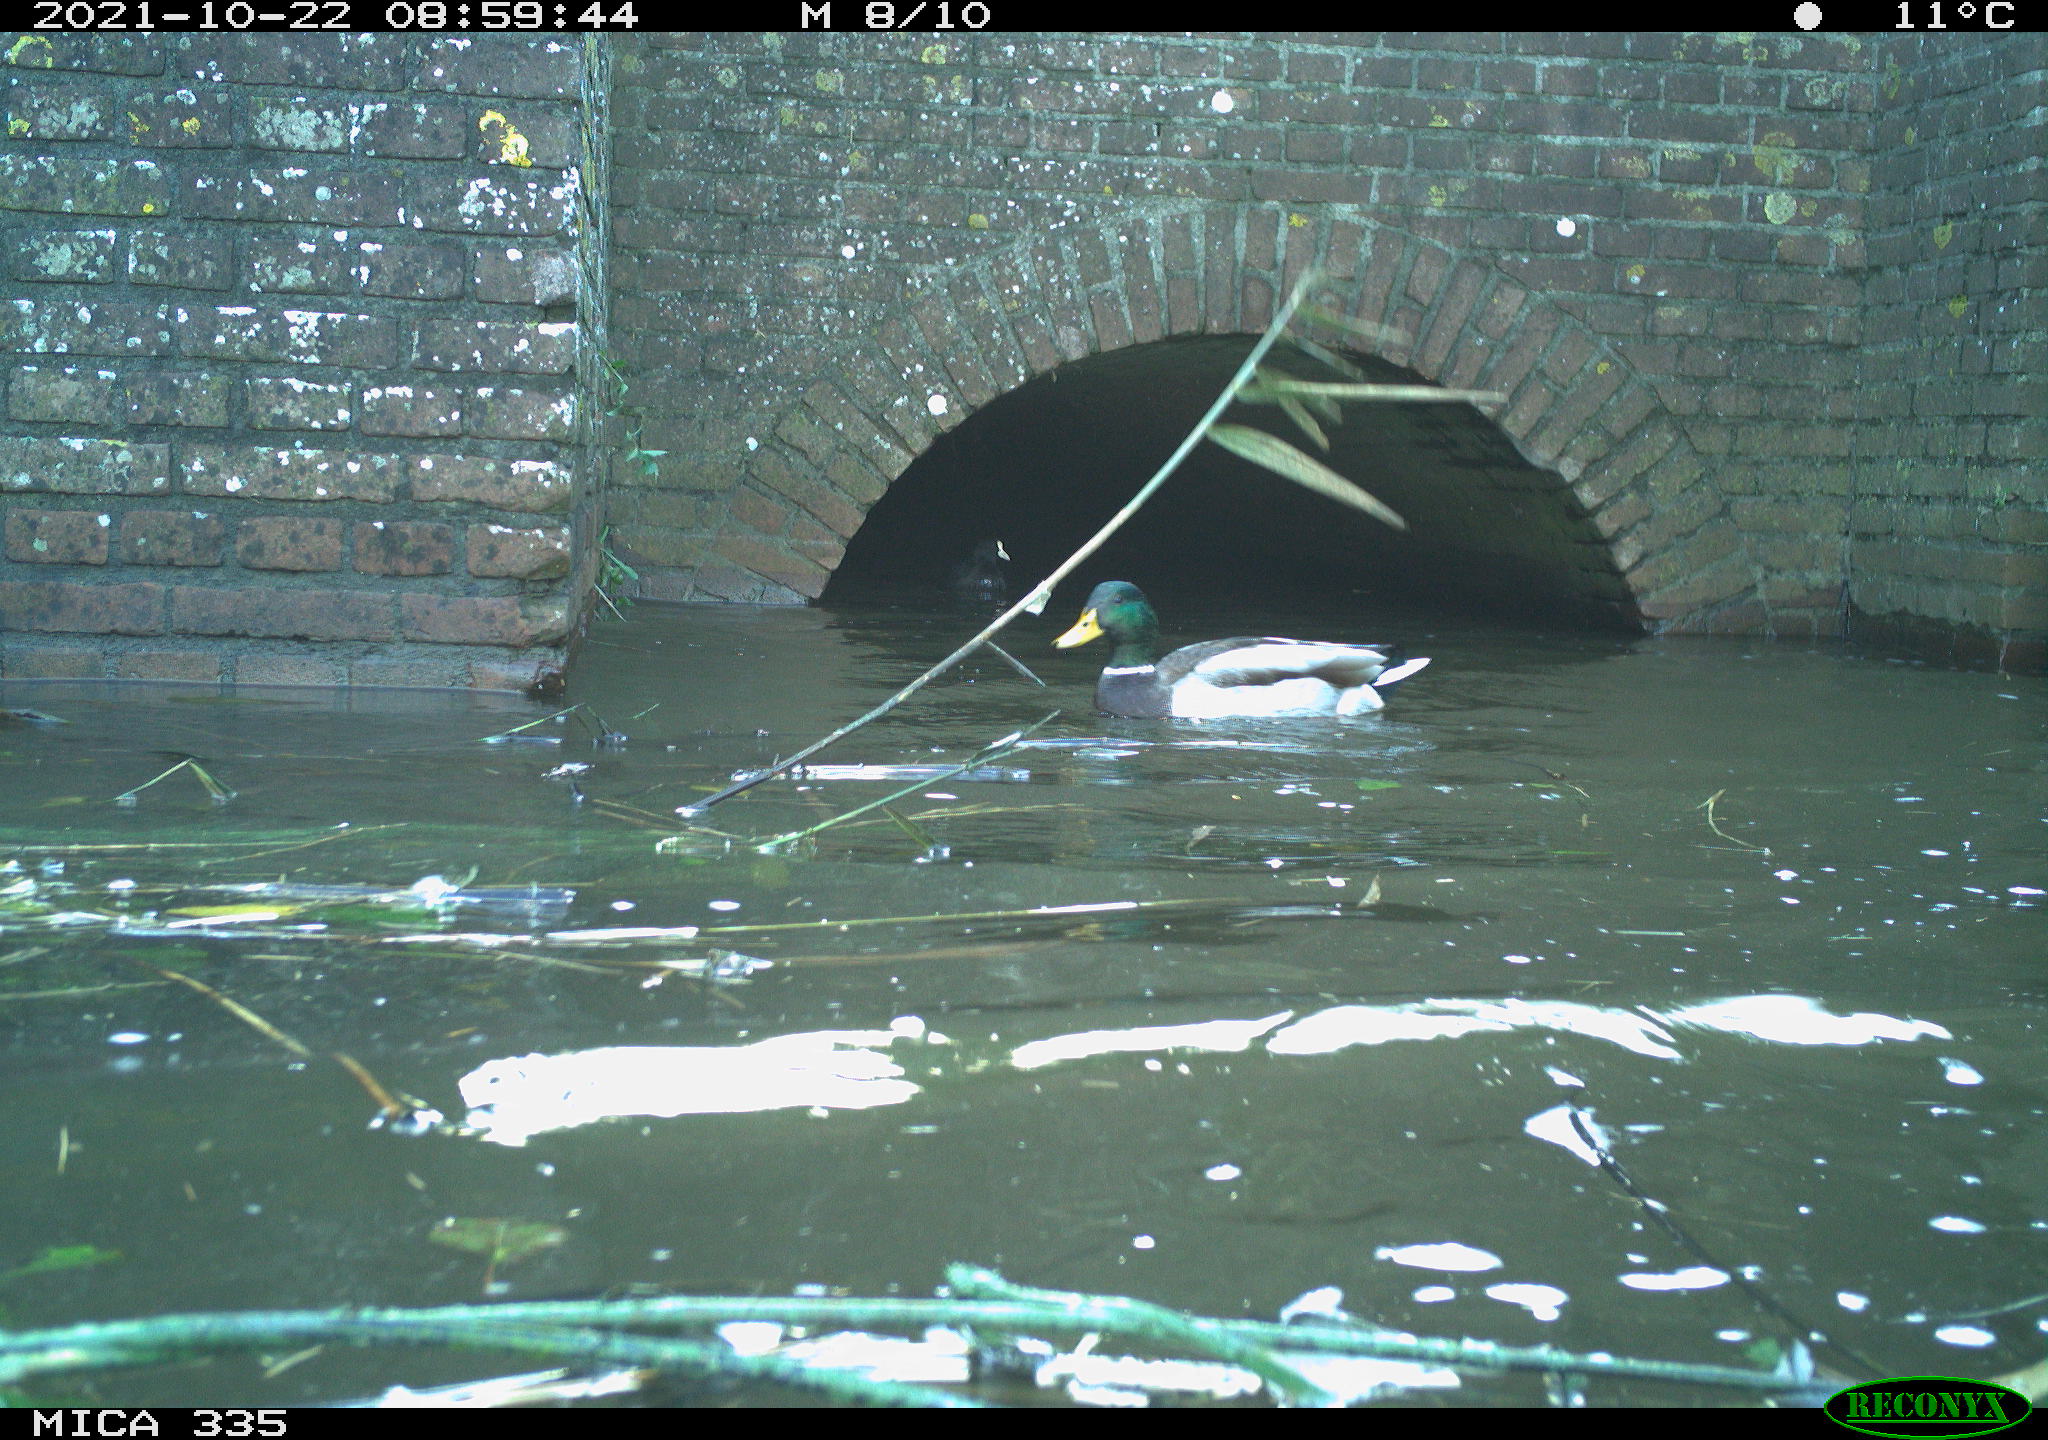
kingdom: Animalia
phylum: Chordata
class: Aves
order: Anseriformes
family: Anatidae
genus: Anas
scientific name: Anas platyrhynchos
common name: Mallard
